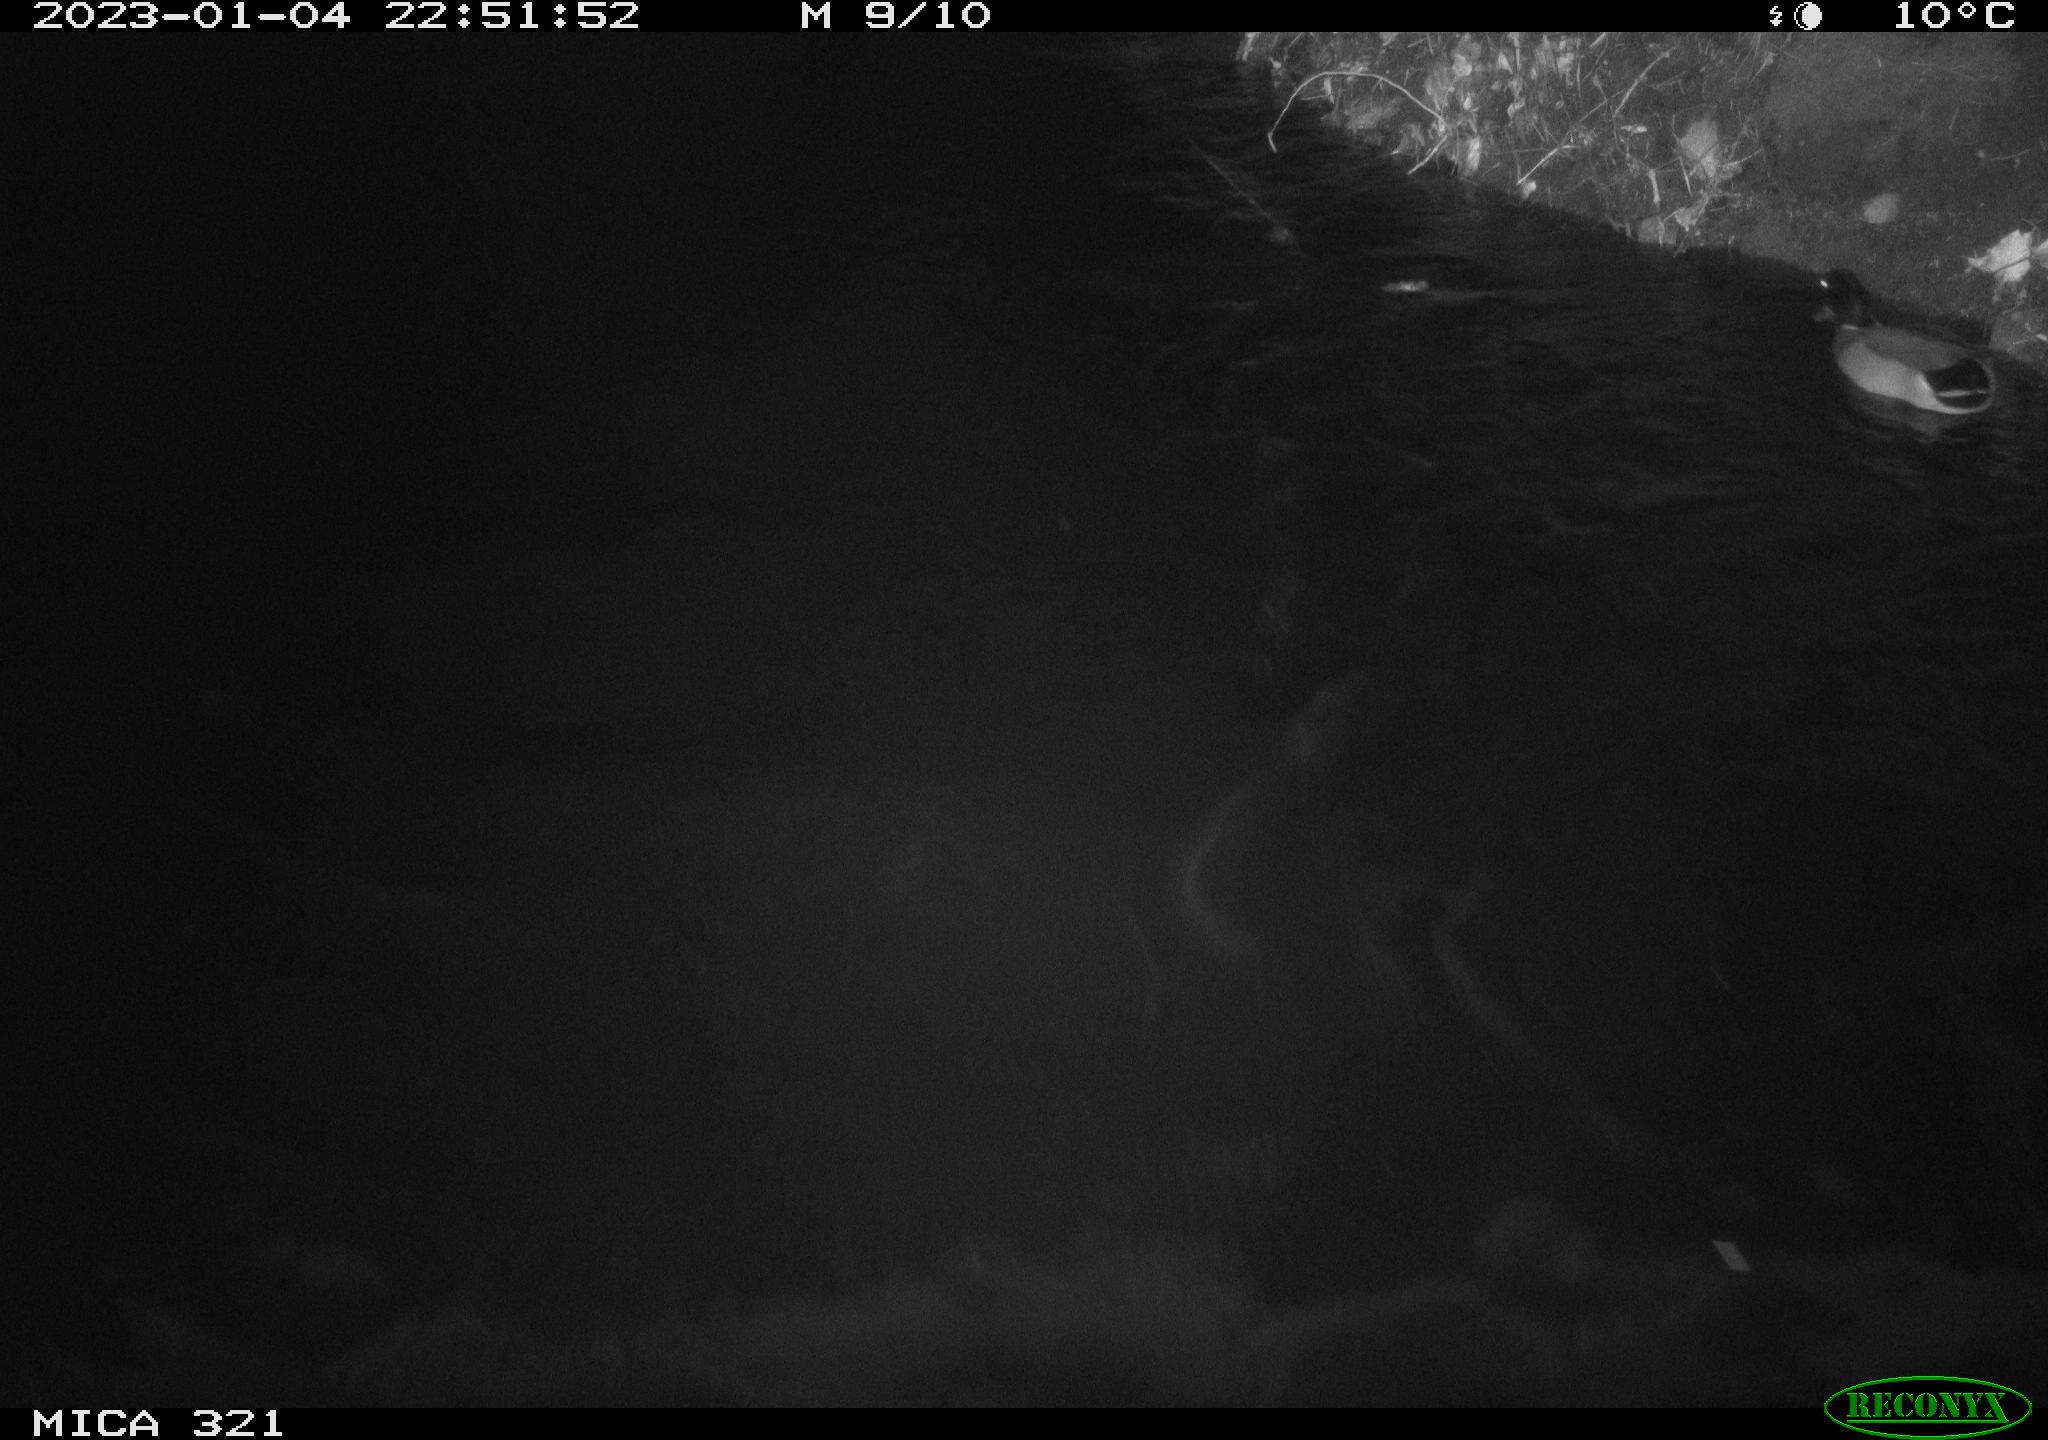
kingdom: Animalia
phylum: Chordata
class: Aves
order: Anseriformes
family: Anatidae
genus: Anas
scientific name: Anas
